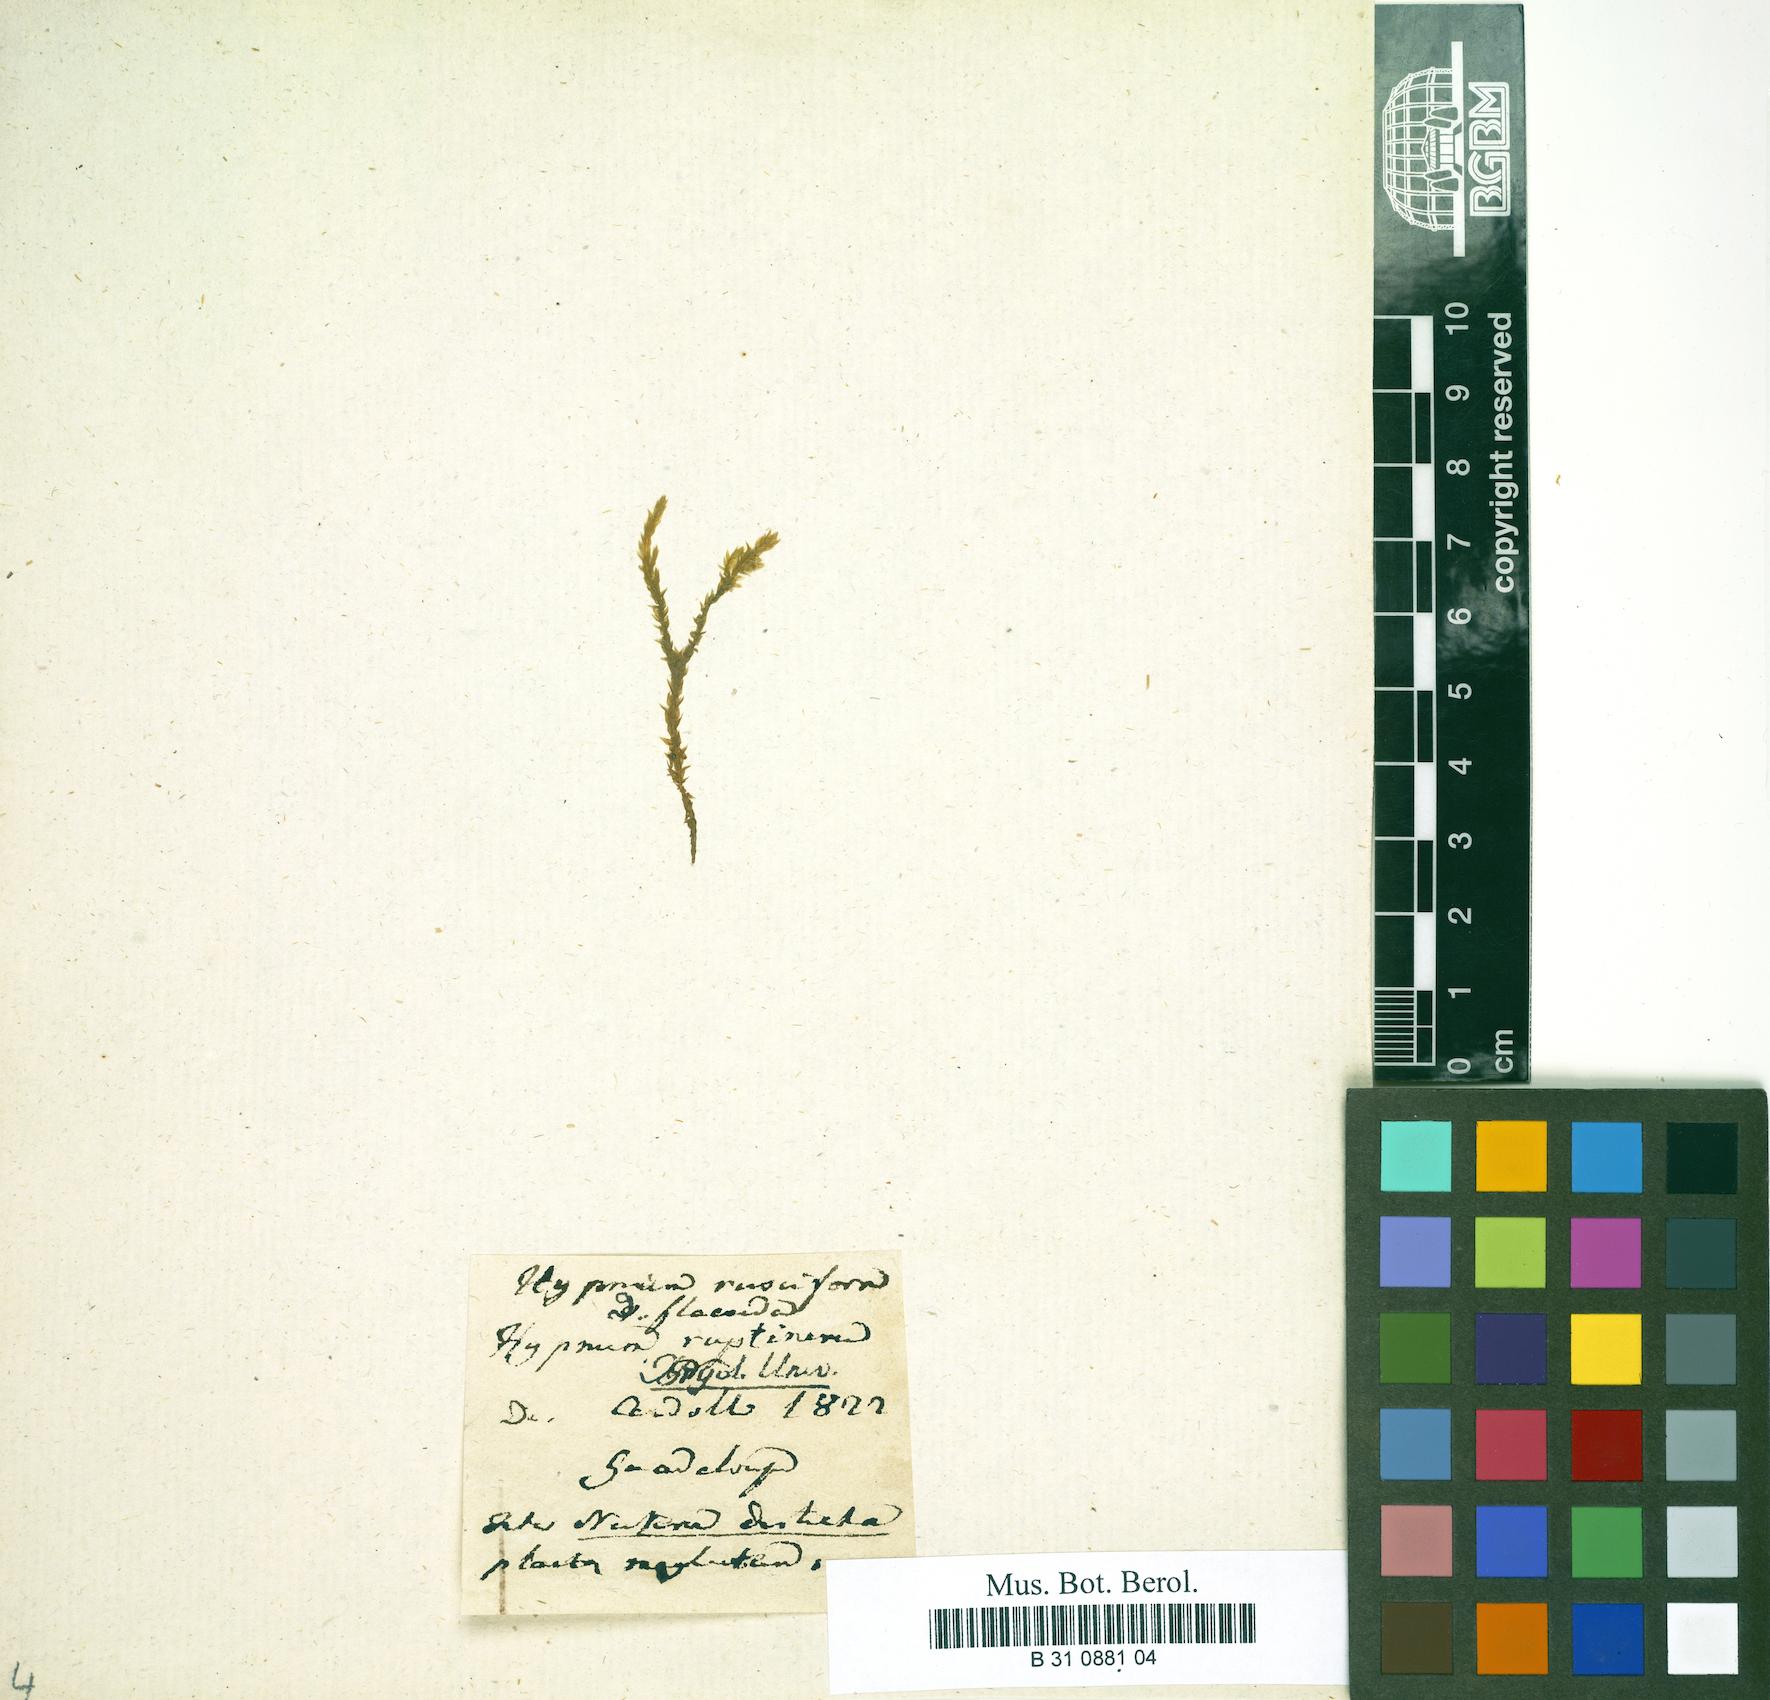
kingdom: Plantae
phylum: Bryophyta
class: Bryopsida
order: Hypnales
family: Brachytheciaceae
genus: Rhynchostegium
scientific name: Rhynchostegium riparioides
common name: Platyhypnidium moss
